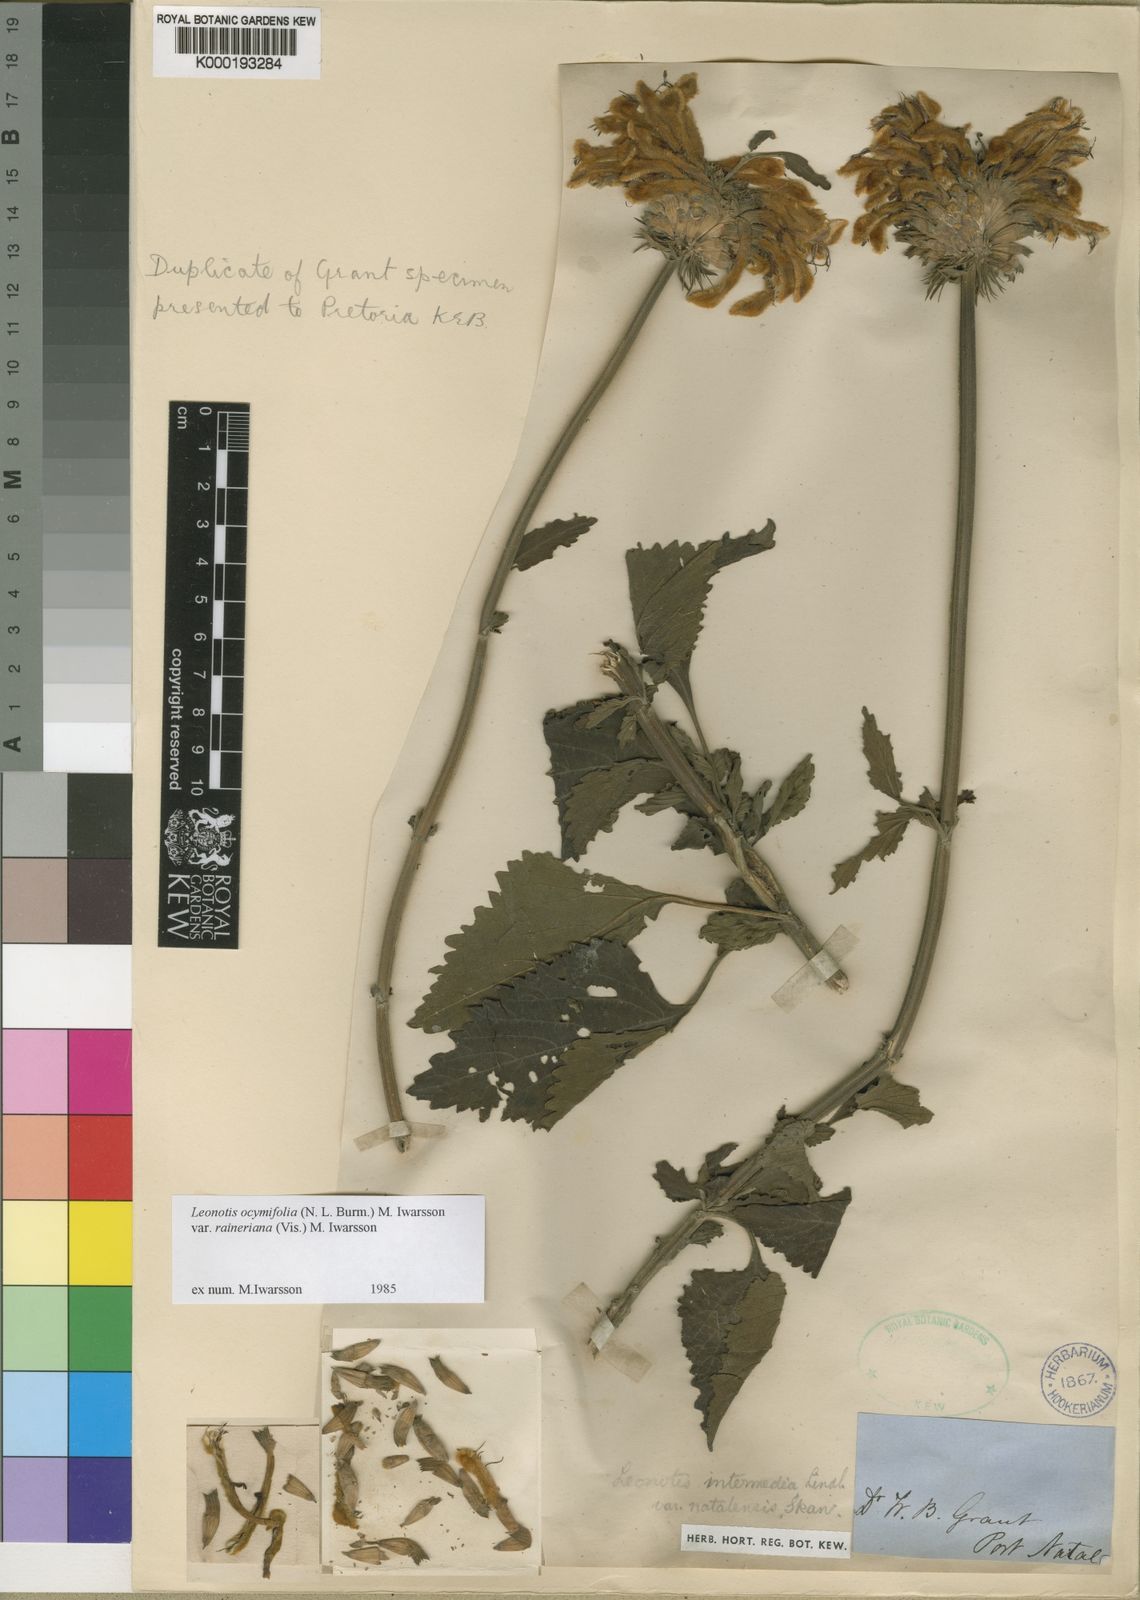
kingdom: Plantae
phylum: Tracheophyta
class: Magnoliopsida
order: Lamiales
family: Lamiaceae
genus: Leonotis
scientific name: Leonotis ocymifolia
